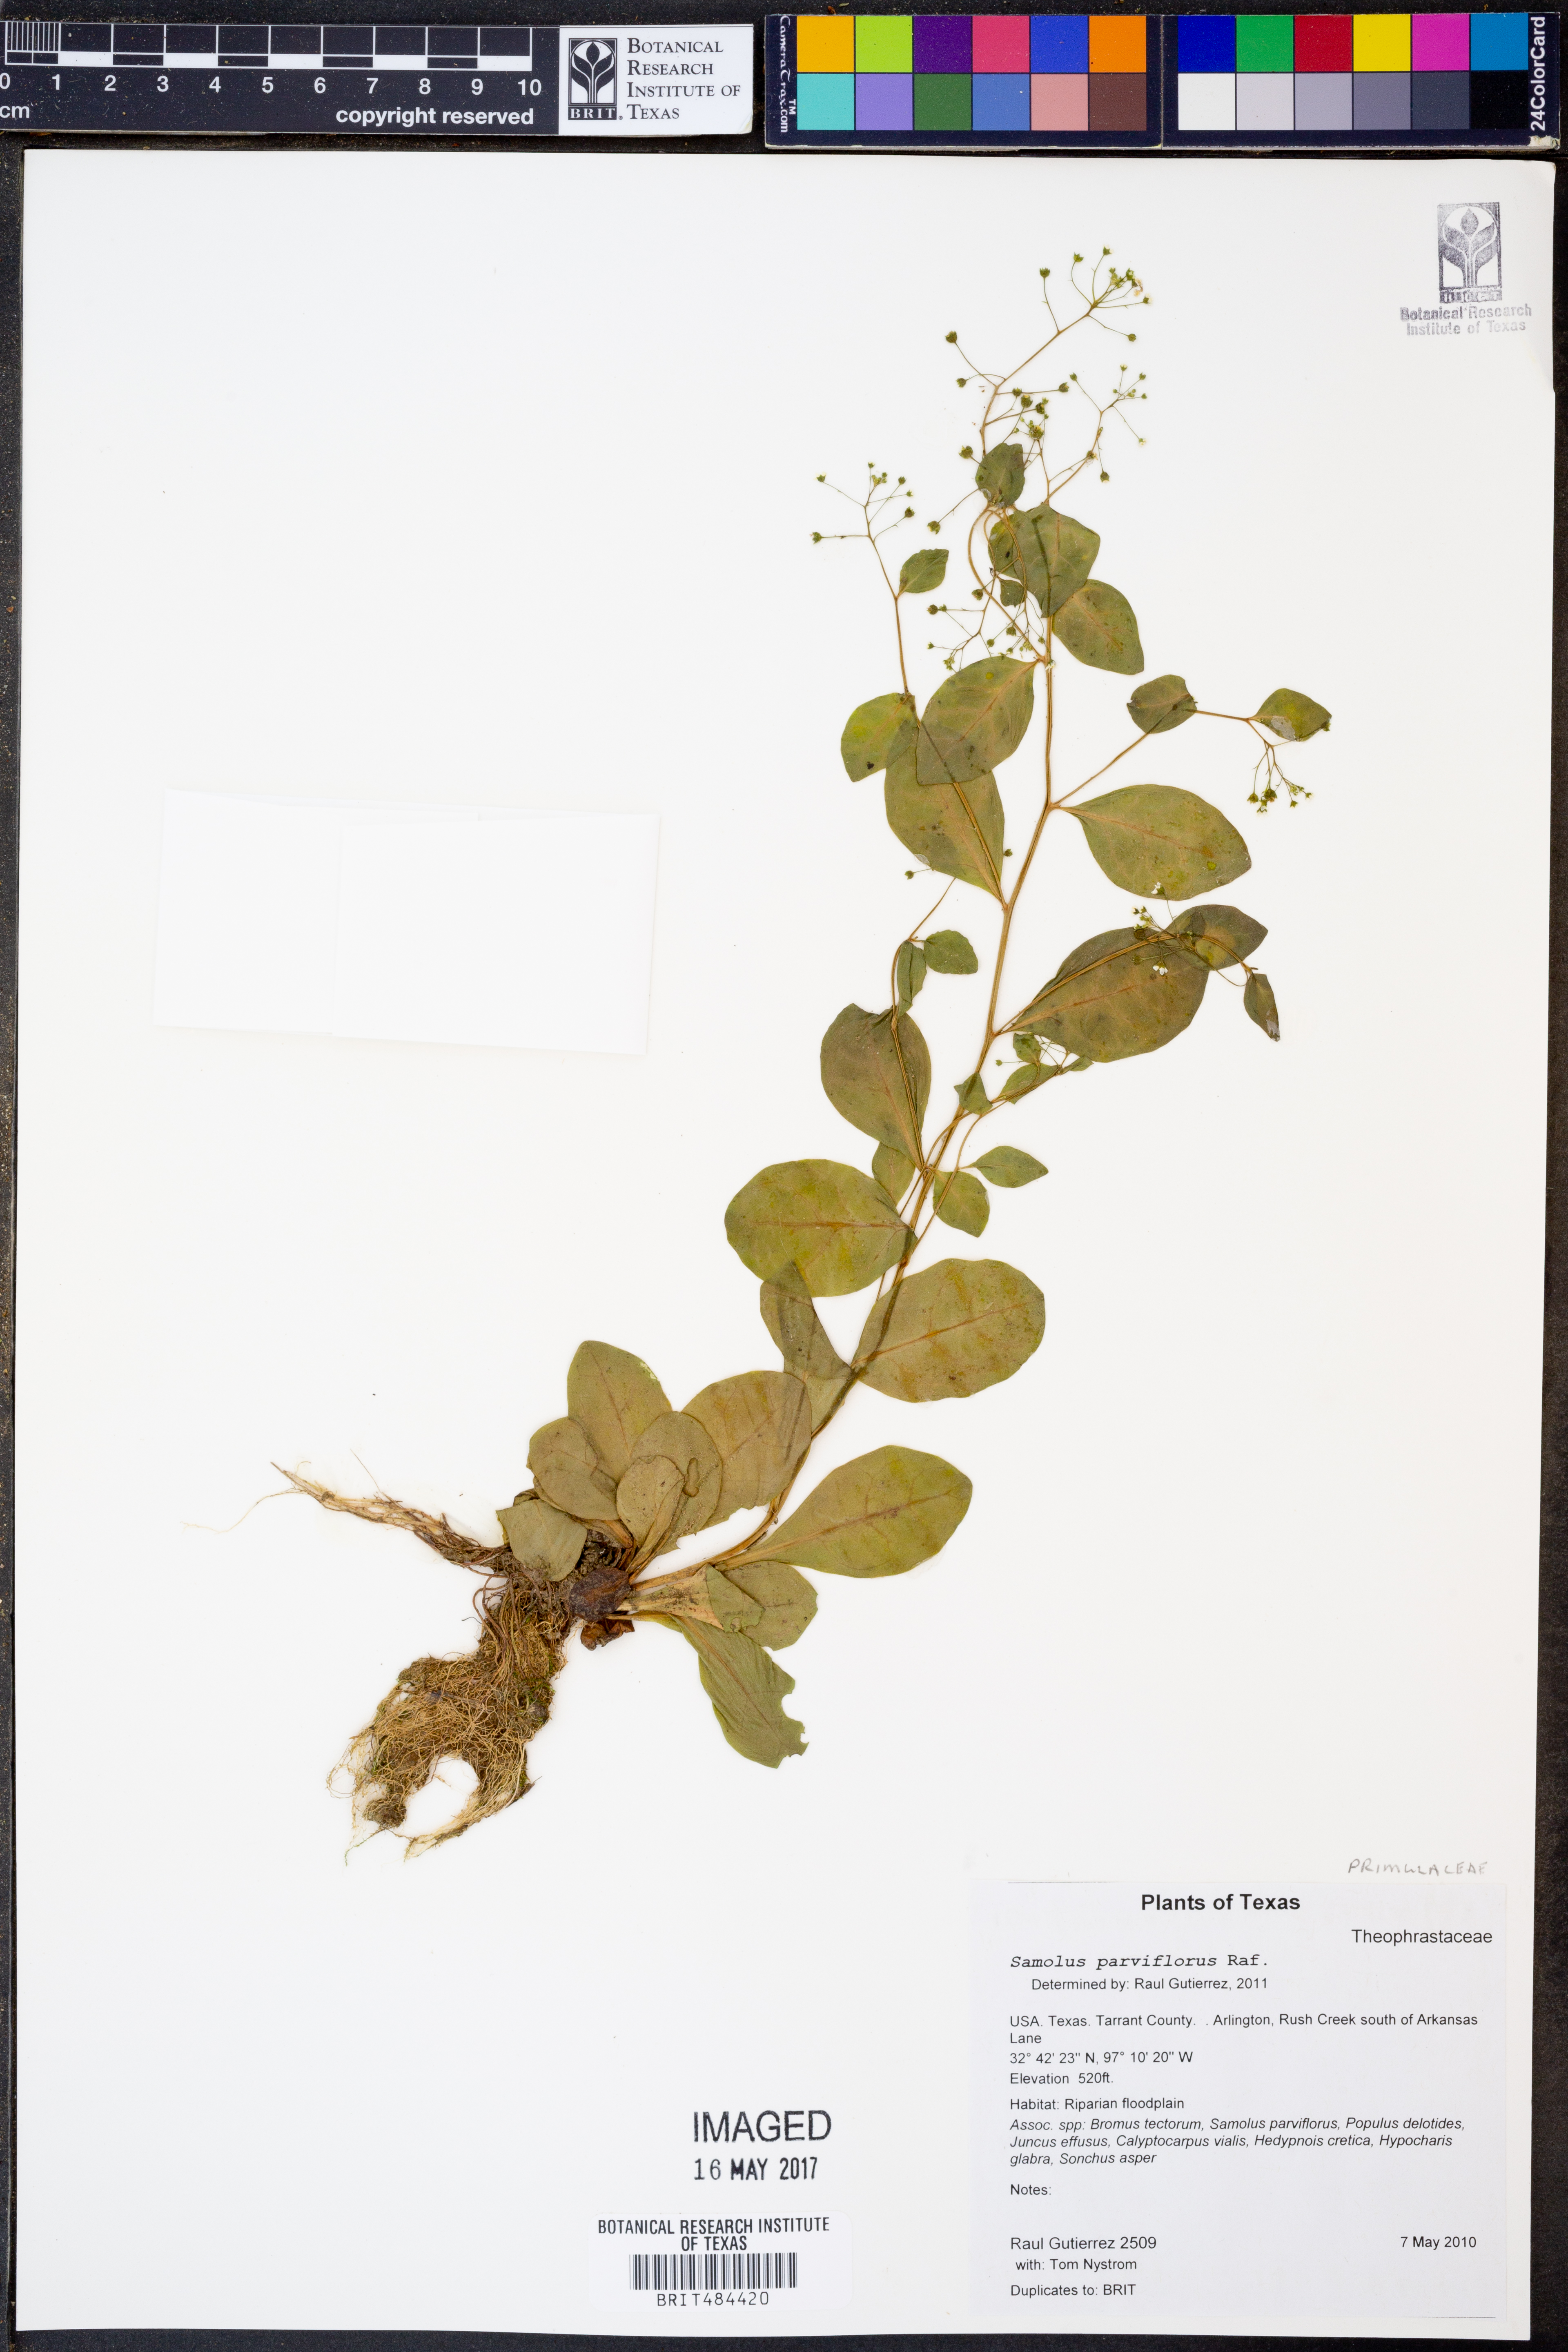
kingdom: Plantae
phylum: Tracheophyta
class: Magnoliopsida
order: Ericales
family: Primulaceae
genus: Samolus
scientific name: Samolus parviflorus
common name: False water pimpernel
